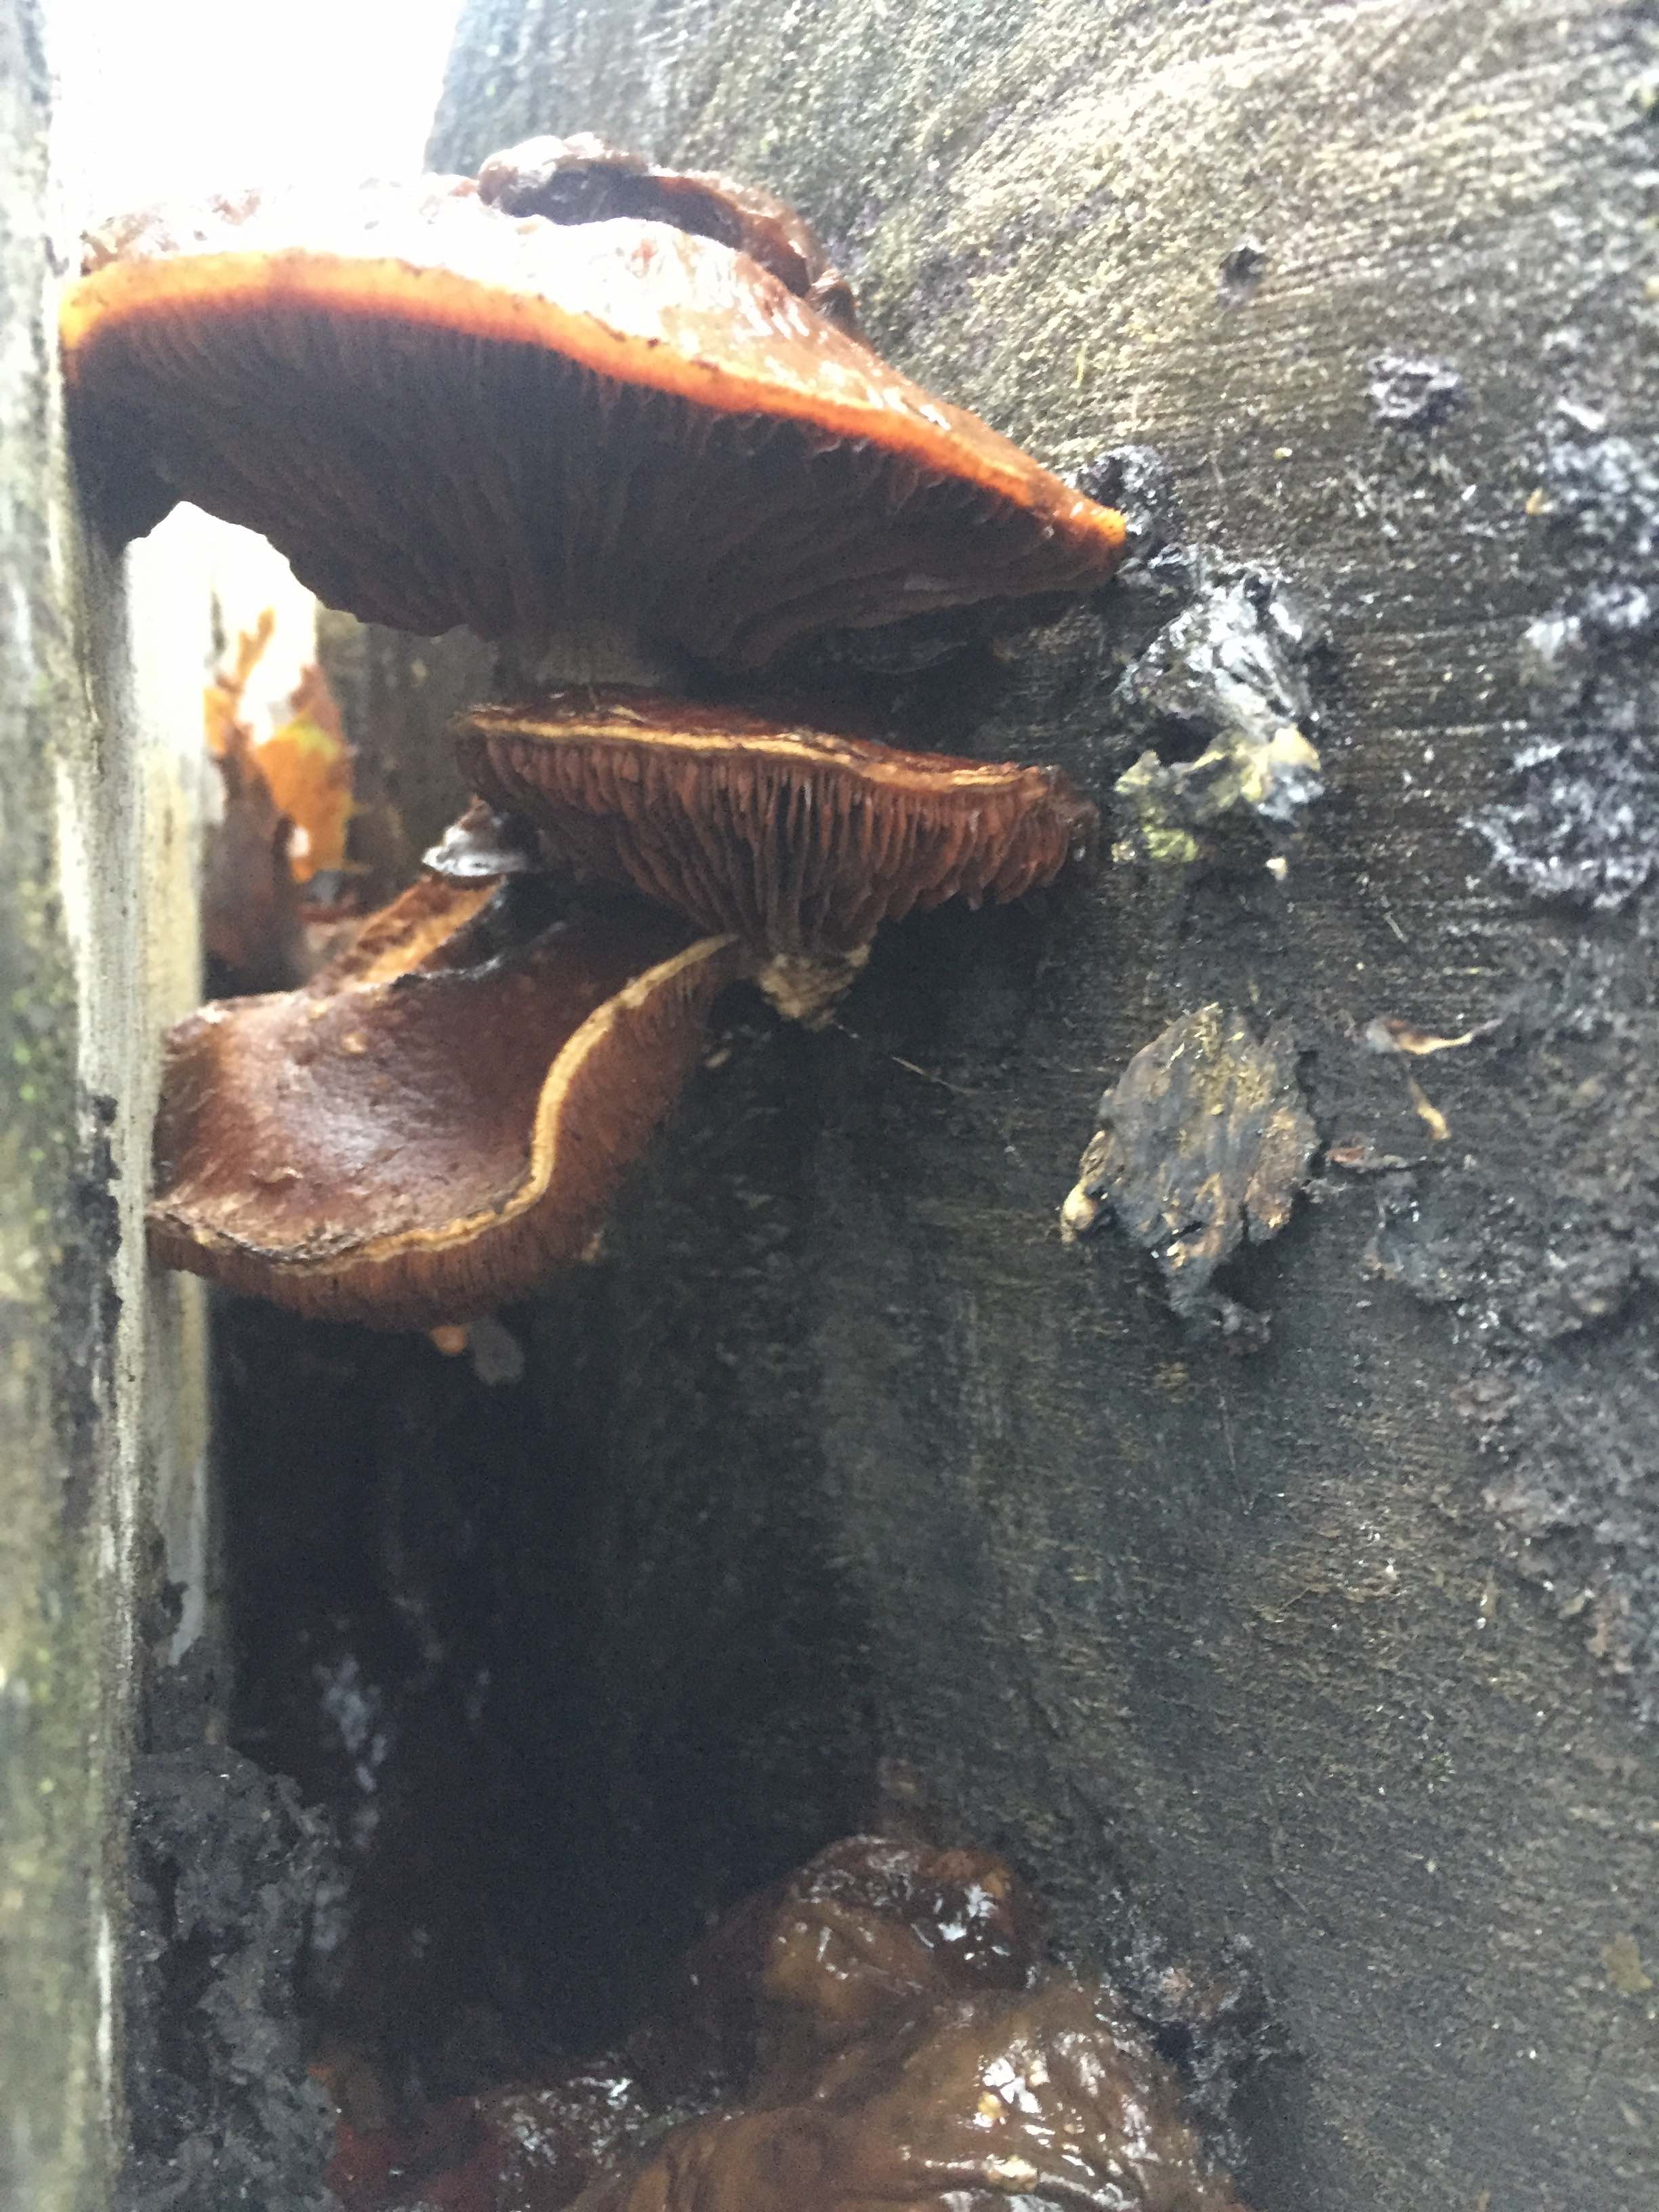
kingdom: Fungi
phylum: Basidiomycota
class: Agaricomycetes
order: Agaricales
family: Strophariaceae
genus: Pholiota
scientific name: Pholiota populnea
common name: poppel-kæmpeskælhat
